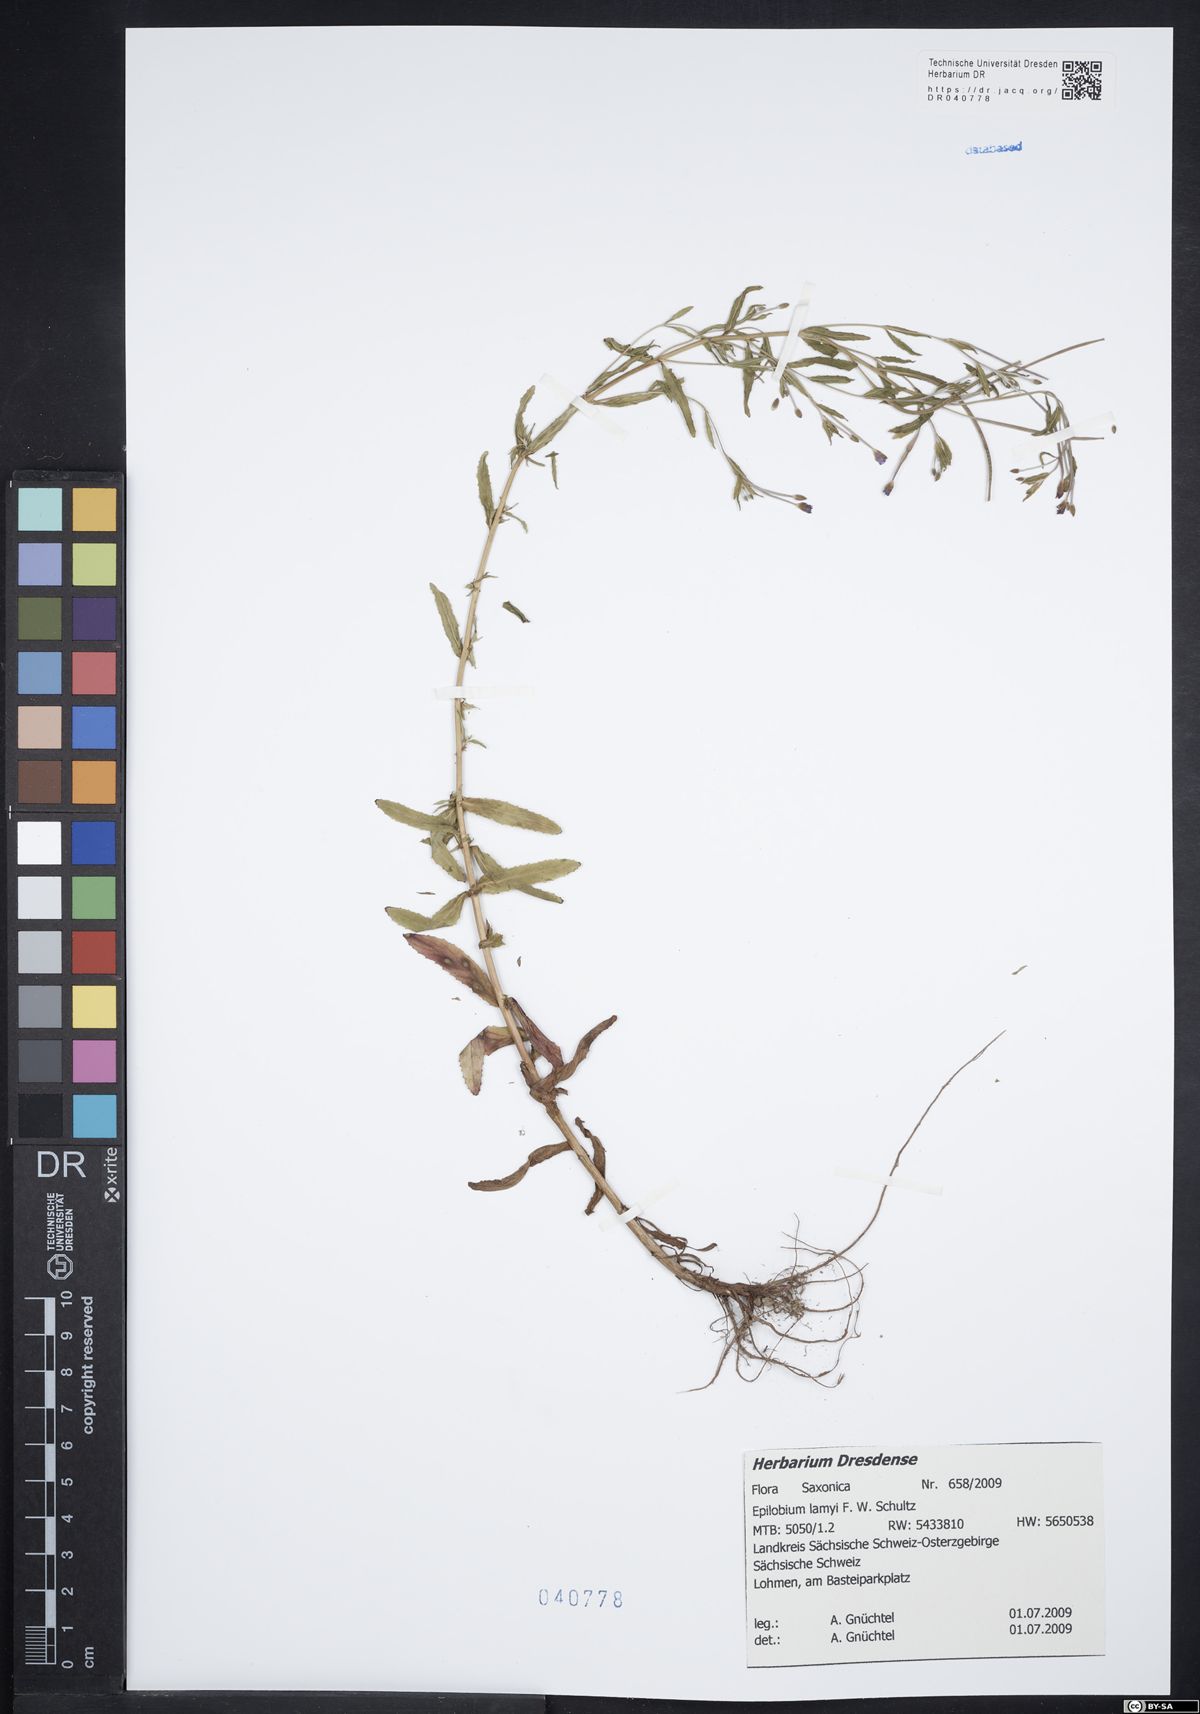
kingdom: Plantae
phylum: Tracheophyta
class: Magnoliopsida
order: Myrtales
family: Onagraceae
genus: Epilobium
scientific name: Epilobium lamyi
